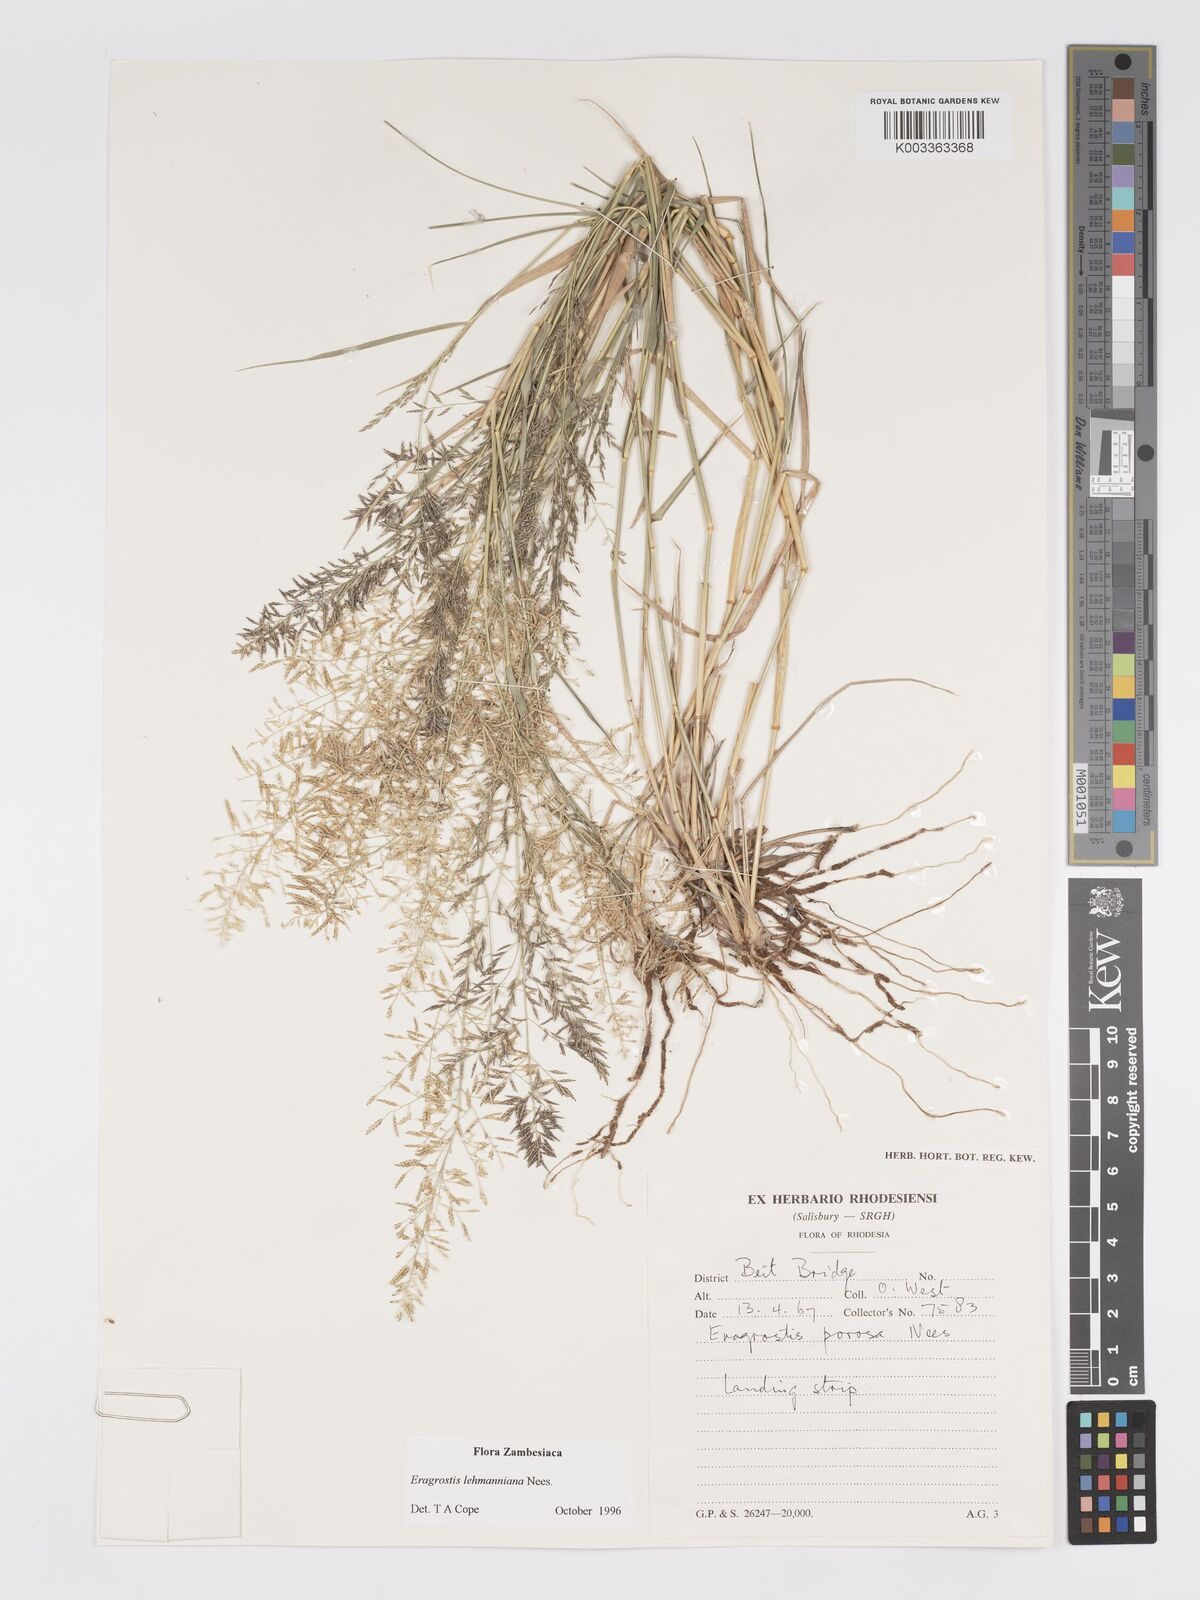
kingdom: Plantae
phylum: Tracheophyta
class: Liliopsida
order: Poales
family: Poaceae
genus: Eragrostis
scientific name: Eragrostis lehmanniana
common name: Lehmann lovegrass
